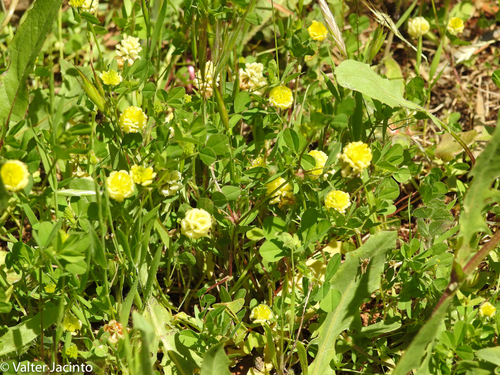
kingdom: Plantae
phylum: Tracheophyta
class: Magnoliopsida
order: Fabales
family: Fabaceae
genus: Trifolium
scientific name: Trifolium campestre
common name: Field clover
